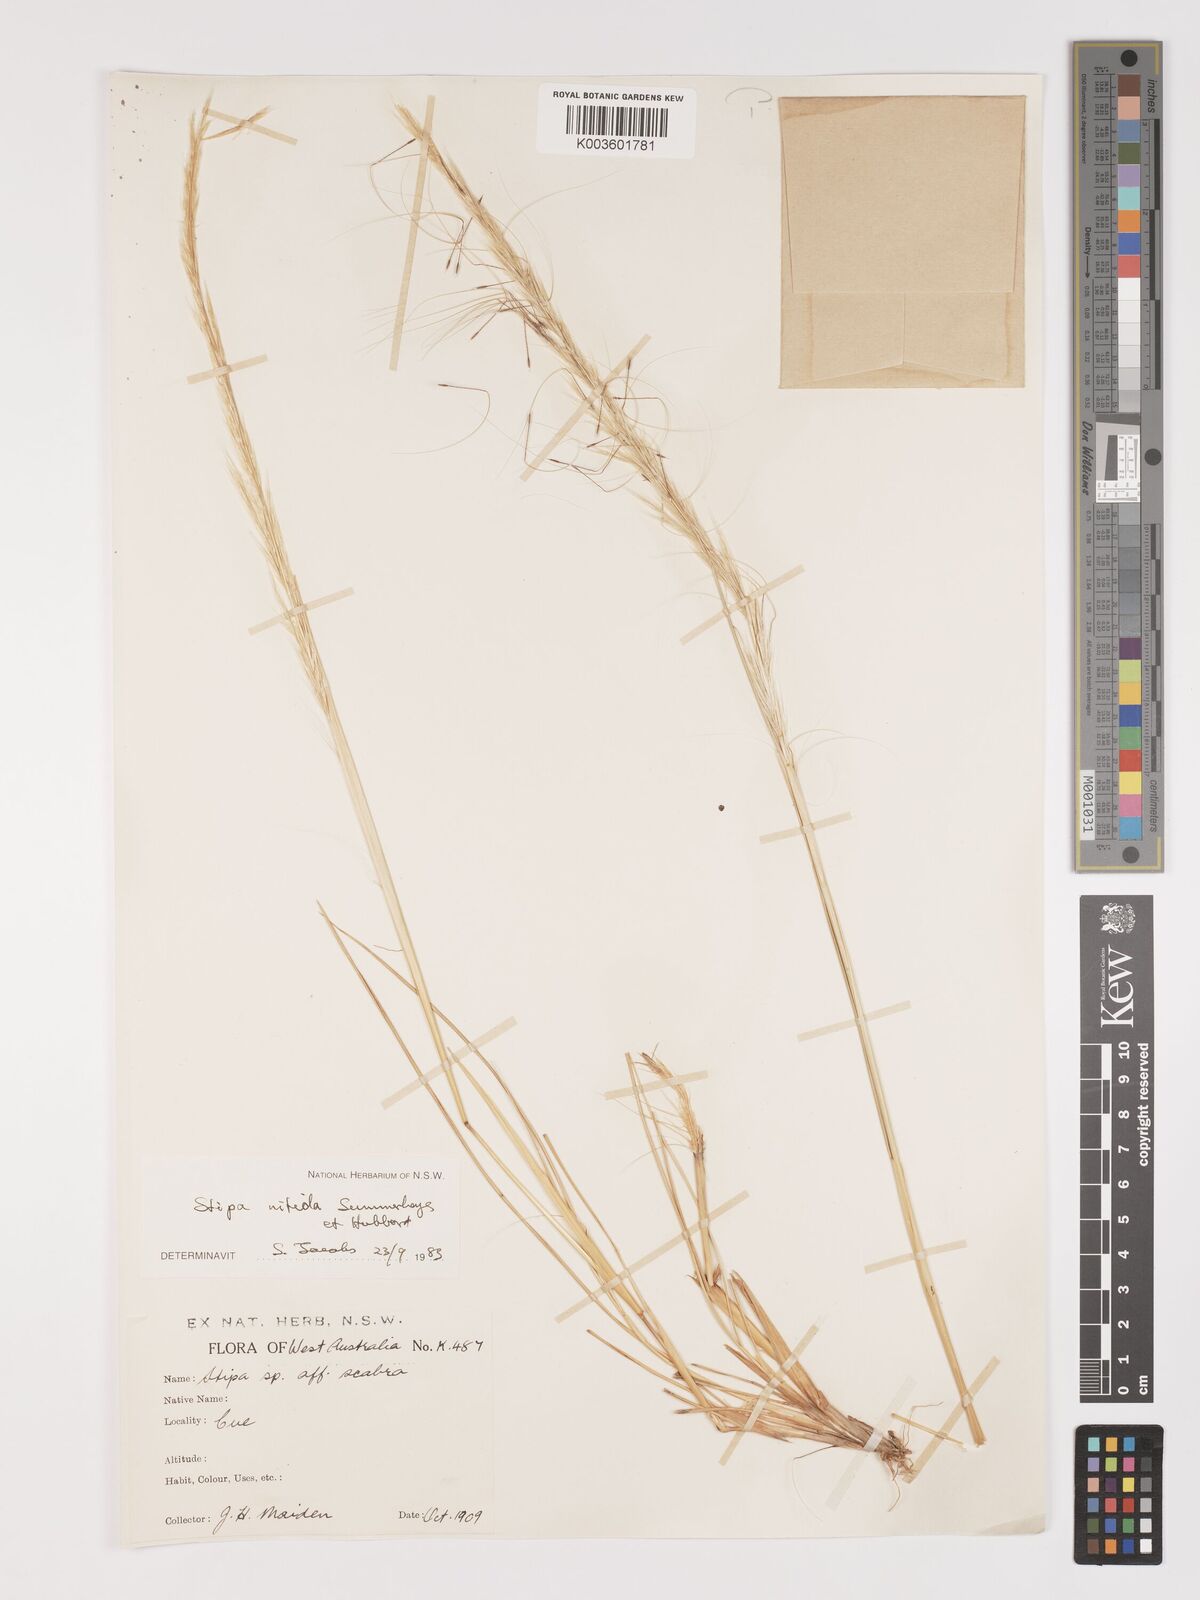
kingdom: Plantae
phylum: Tracheophyta
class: Liliopsida
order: Poales
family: Poaceae
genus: Austrostipa
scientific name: Austrostipa nitida
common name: Balcarra grass
